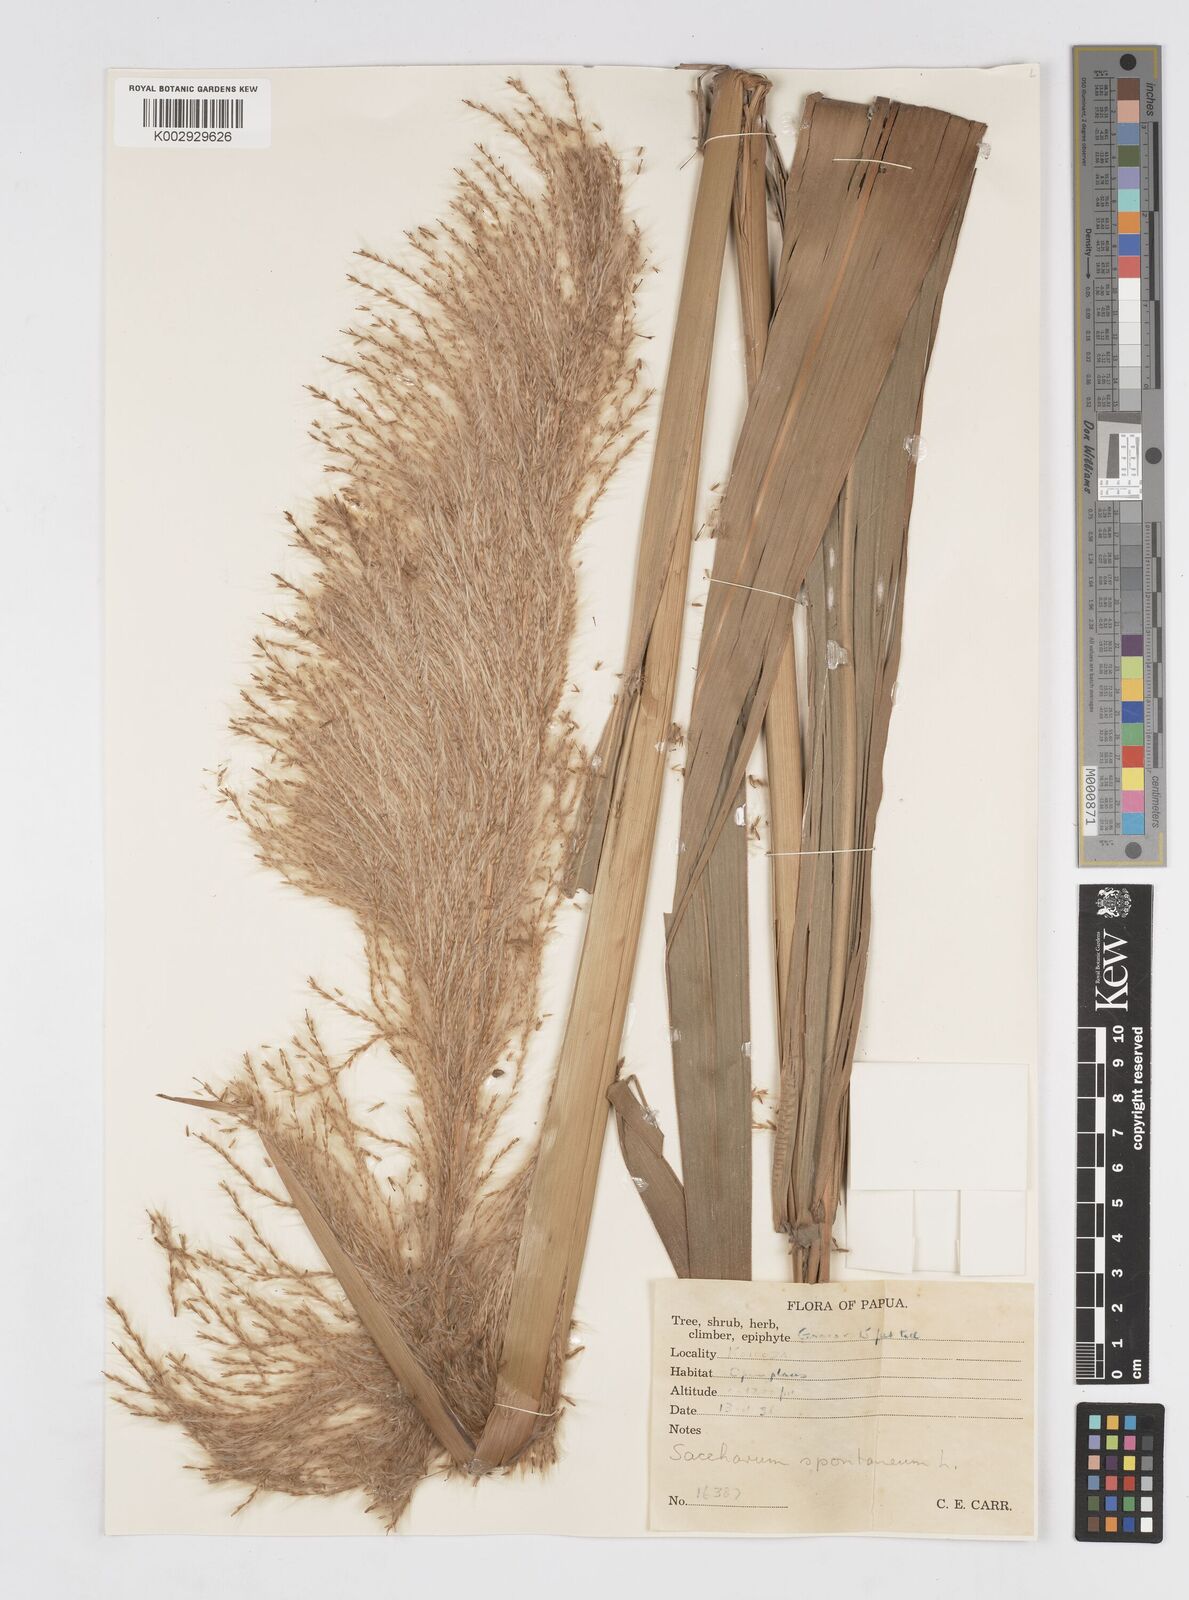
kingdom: Plantae
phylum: Tracheophyta
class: Liliopsida
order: Poales
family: Poaceae
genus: Saccharum
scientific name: Saccharum spontaneum
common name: Wild sugarcane
